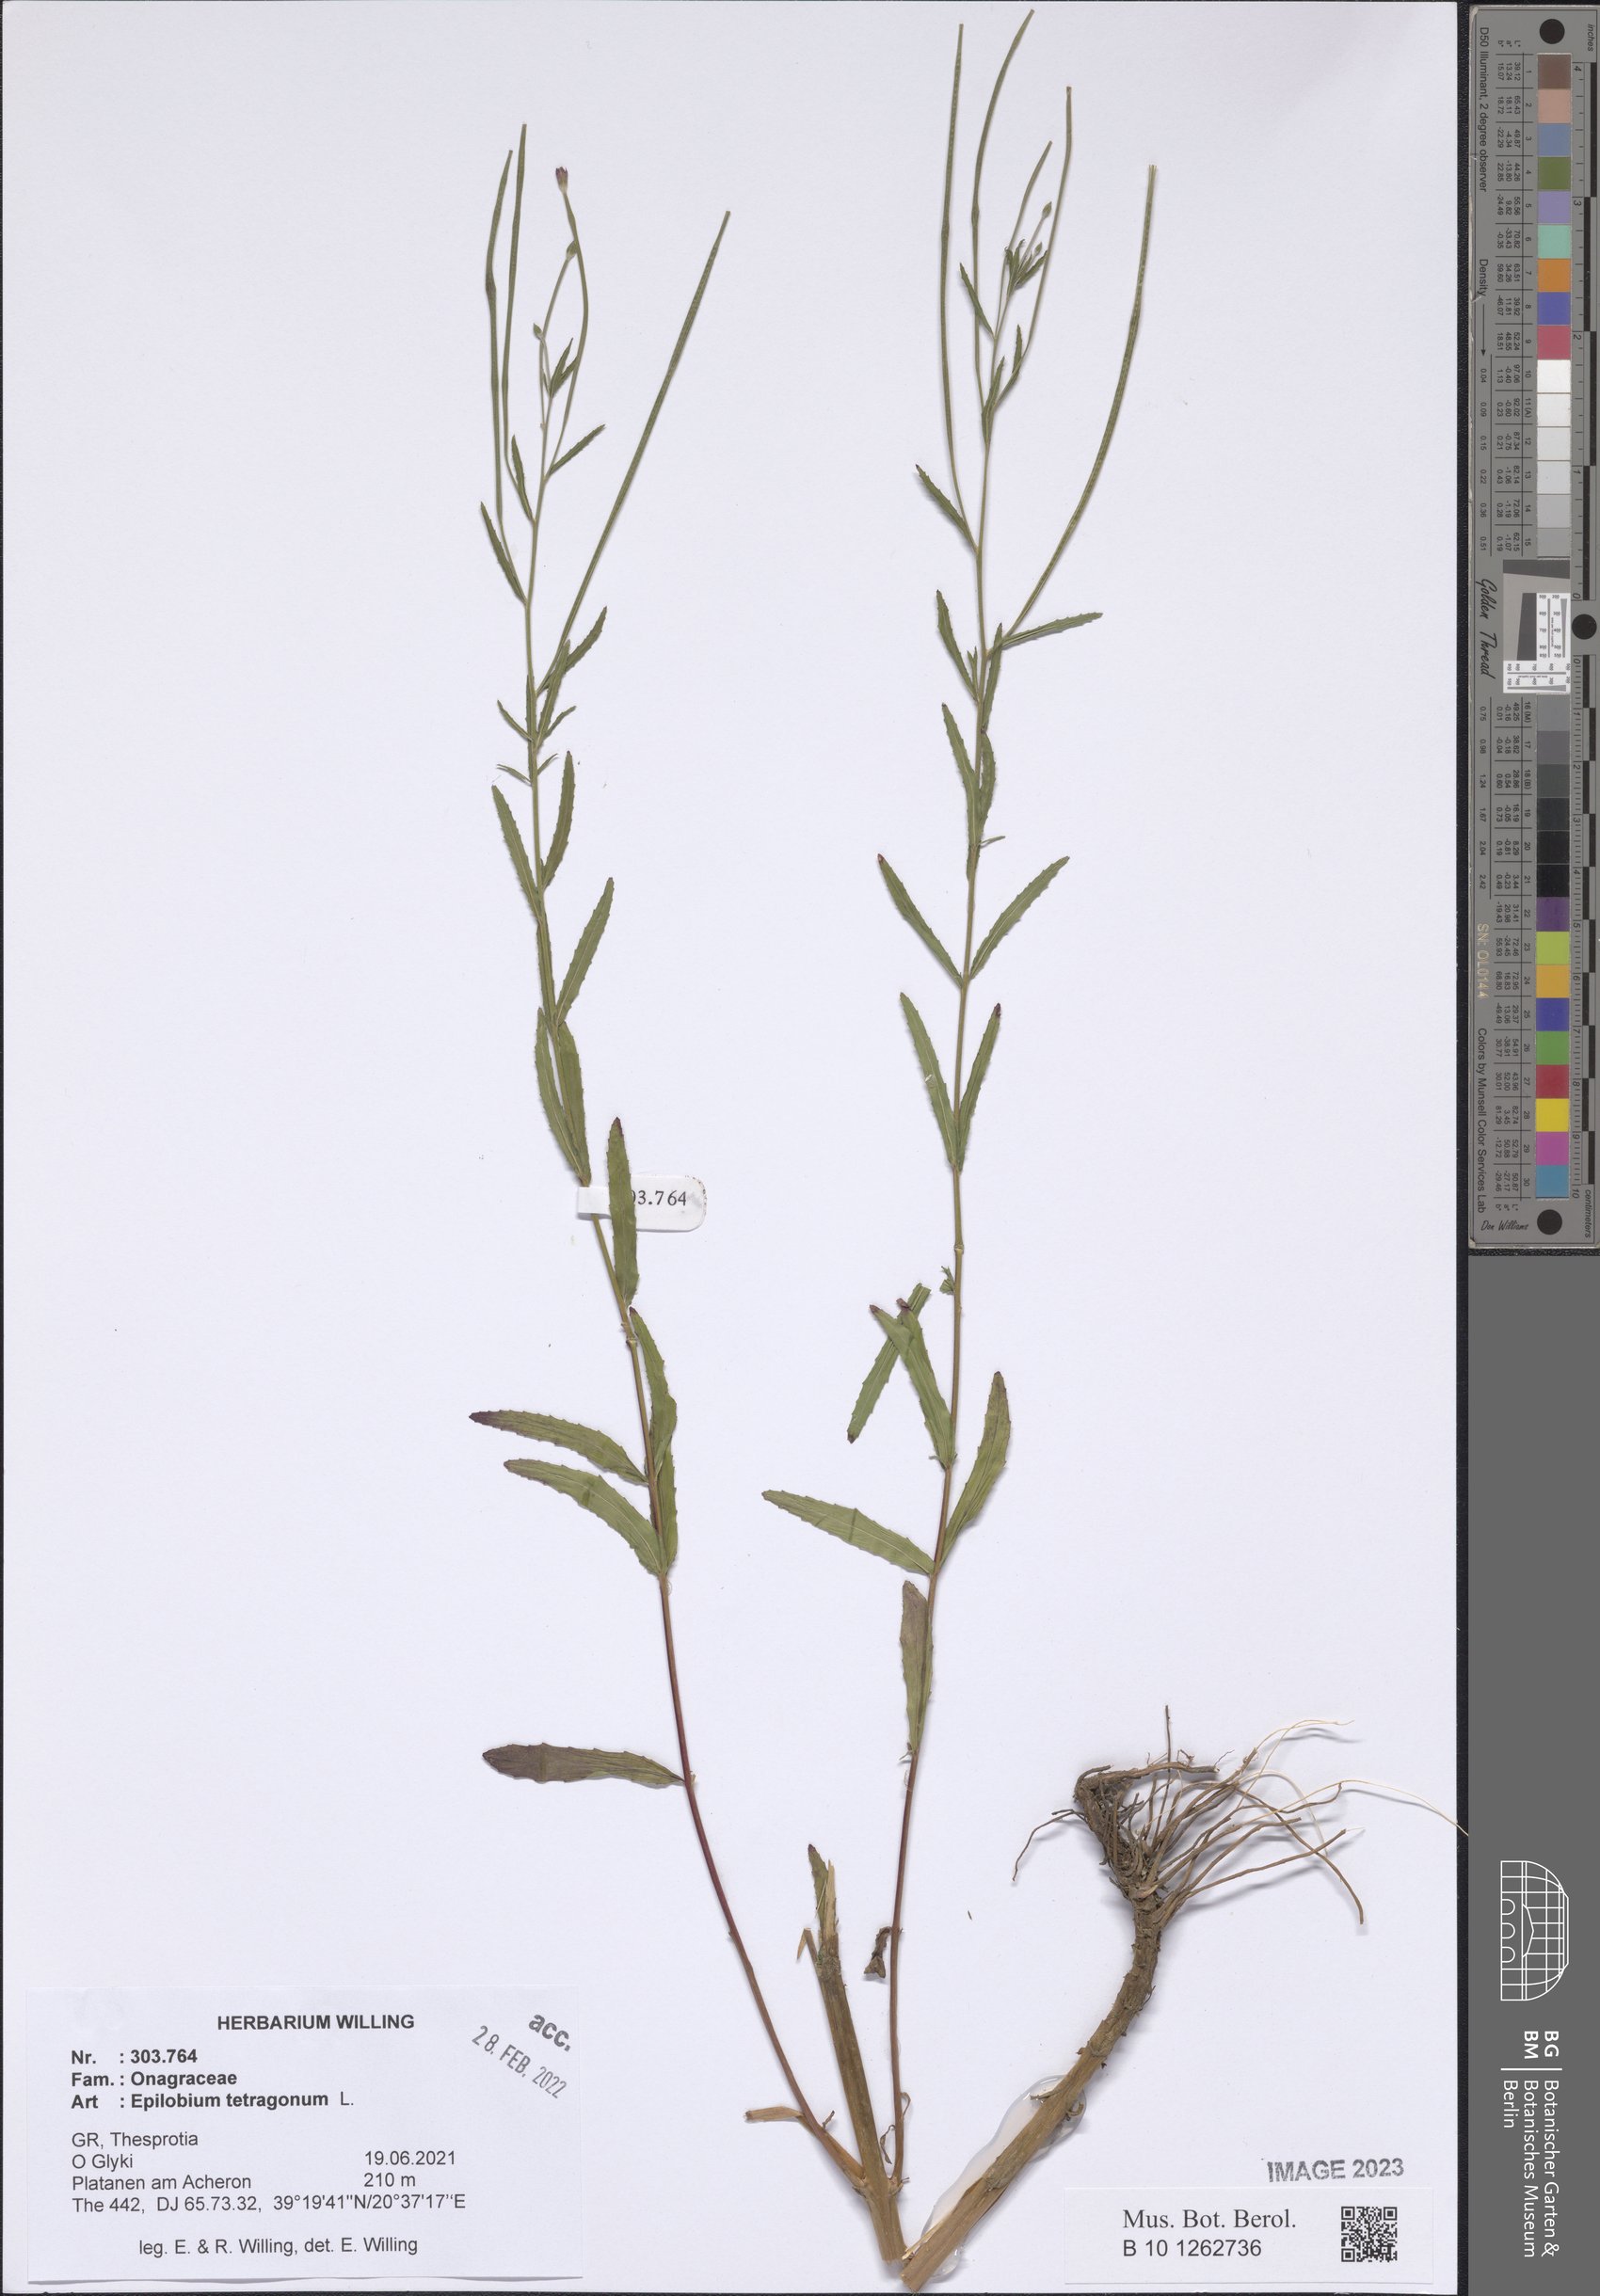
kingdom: Plantae
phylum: Tracheophyta
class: Magnoliopsida
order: Myrtales
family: Onagraceae
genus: Epilobium
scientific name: Epilobium tetragonum
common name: Square-stemmed willowherb
